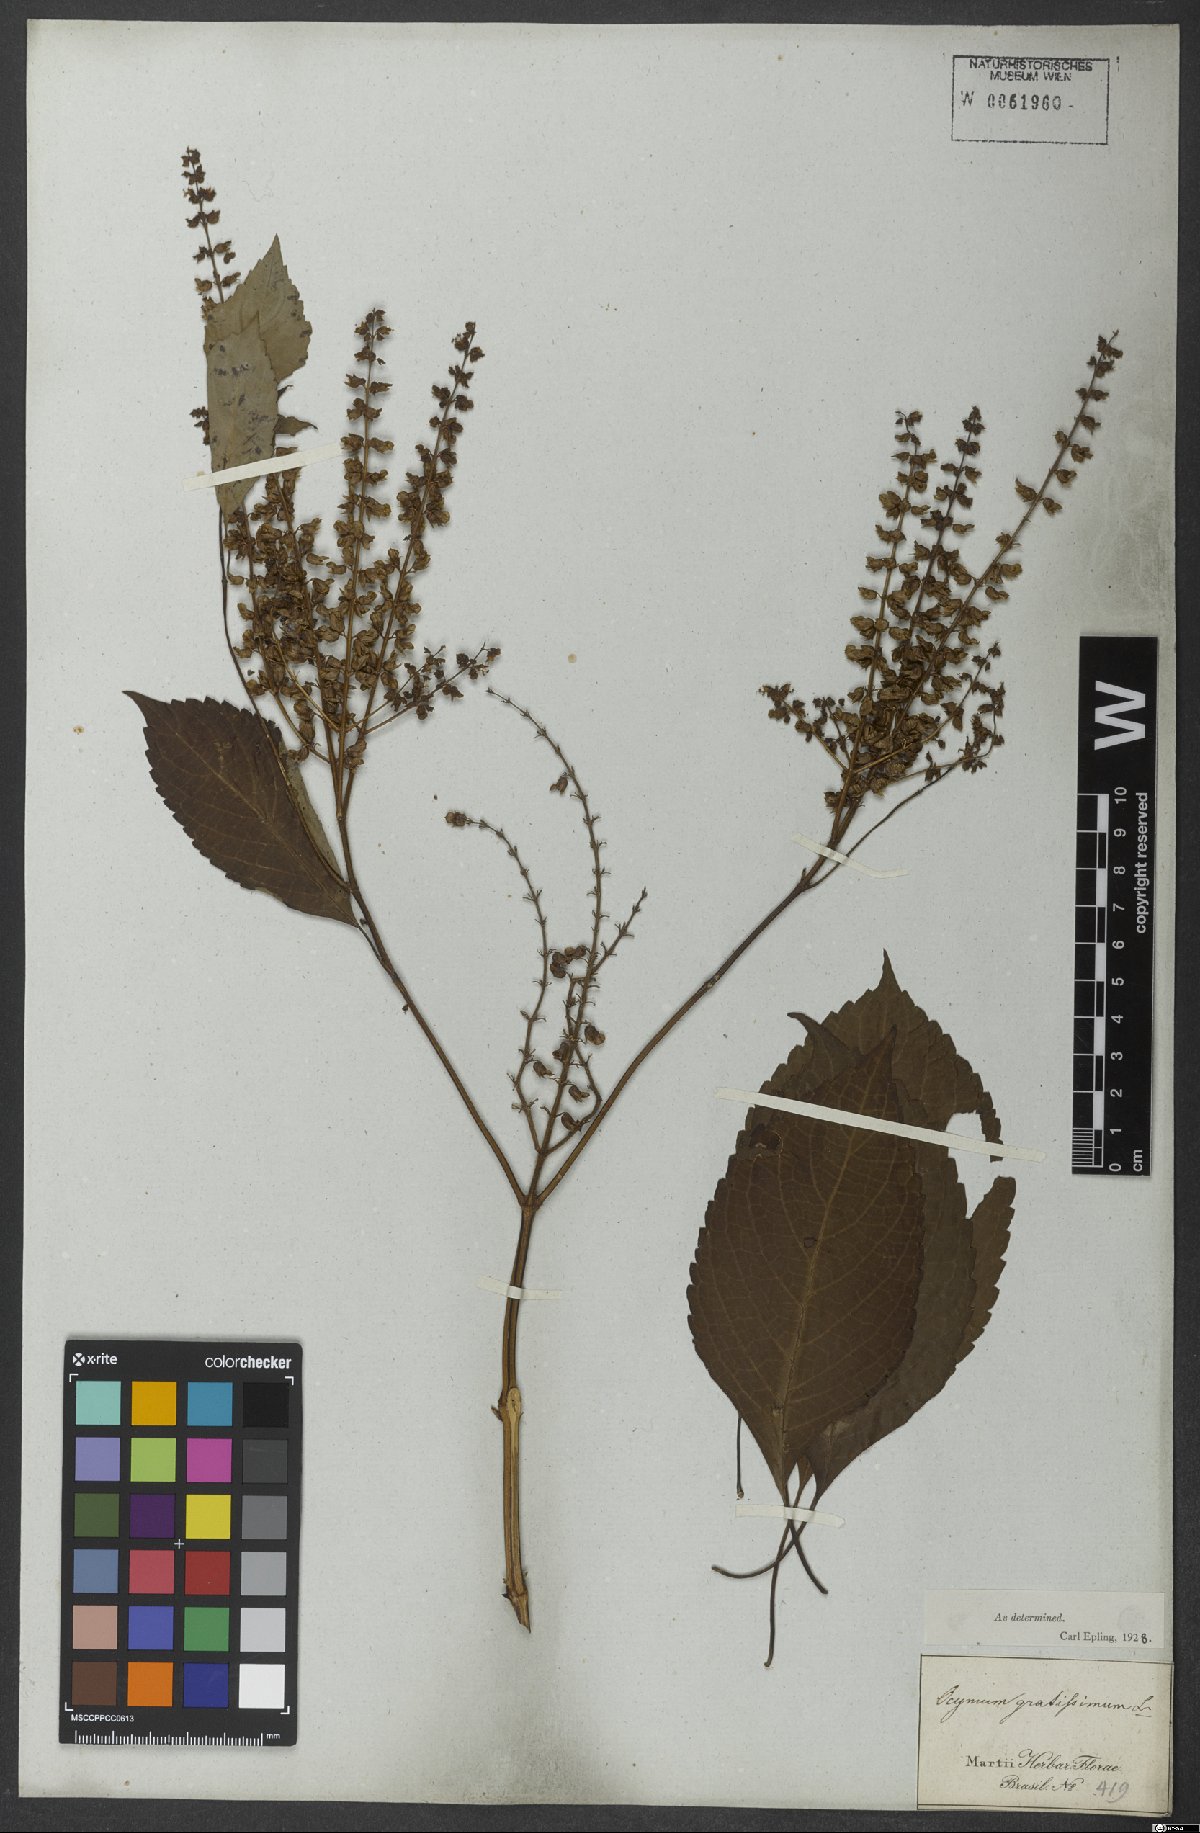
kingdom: Plantae
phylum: Tracheophyta
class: Magnoliopsida
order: Lamiales
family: Lamiaceae
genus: Ocimum
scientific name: Ocimum gratissimum
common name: African basil
